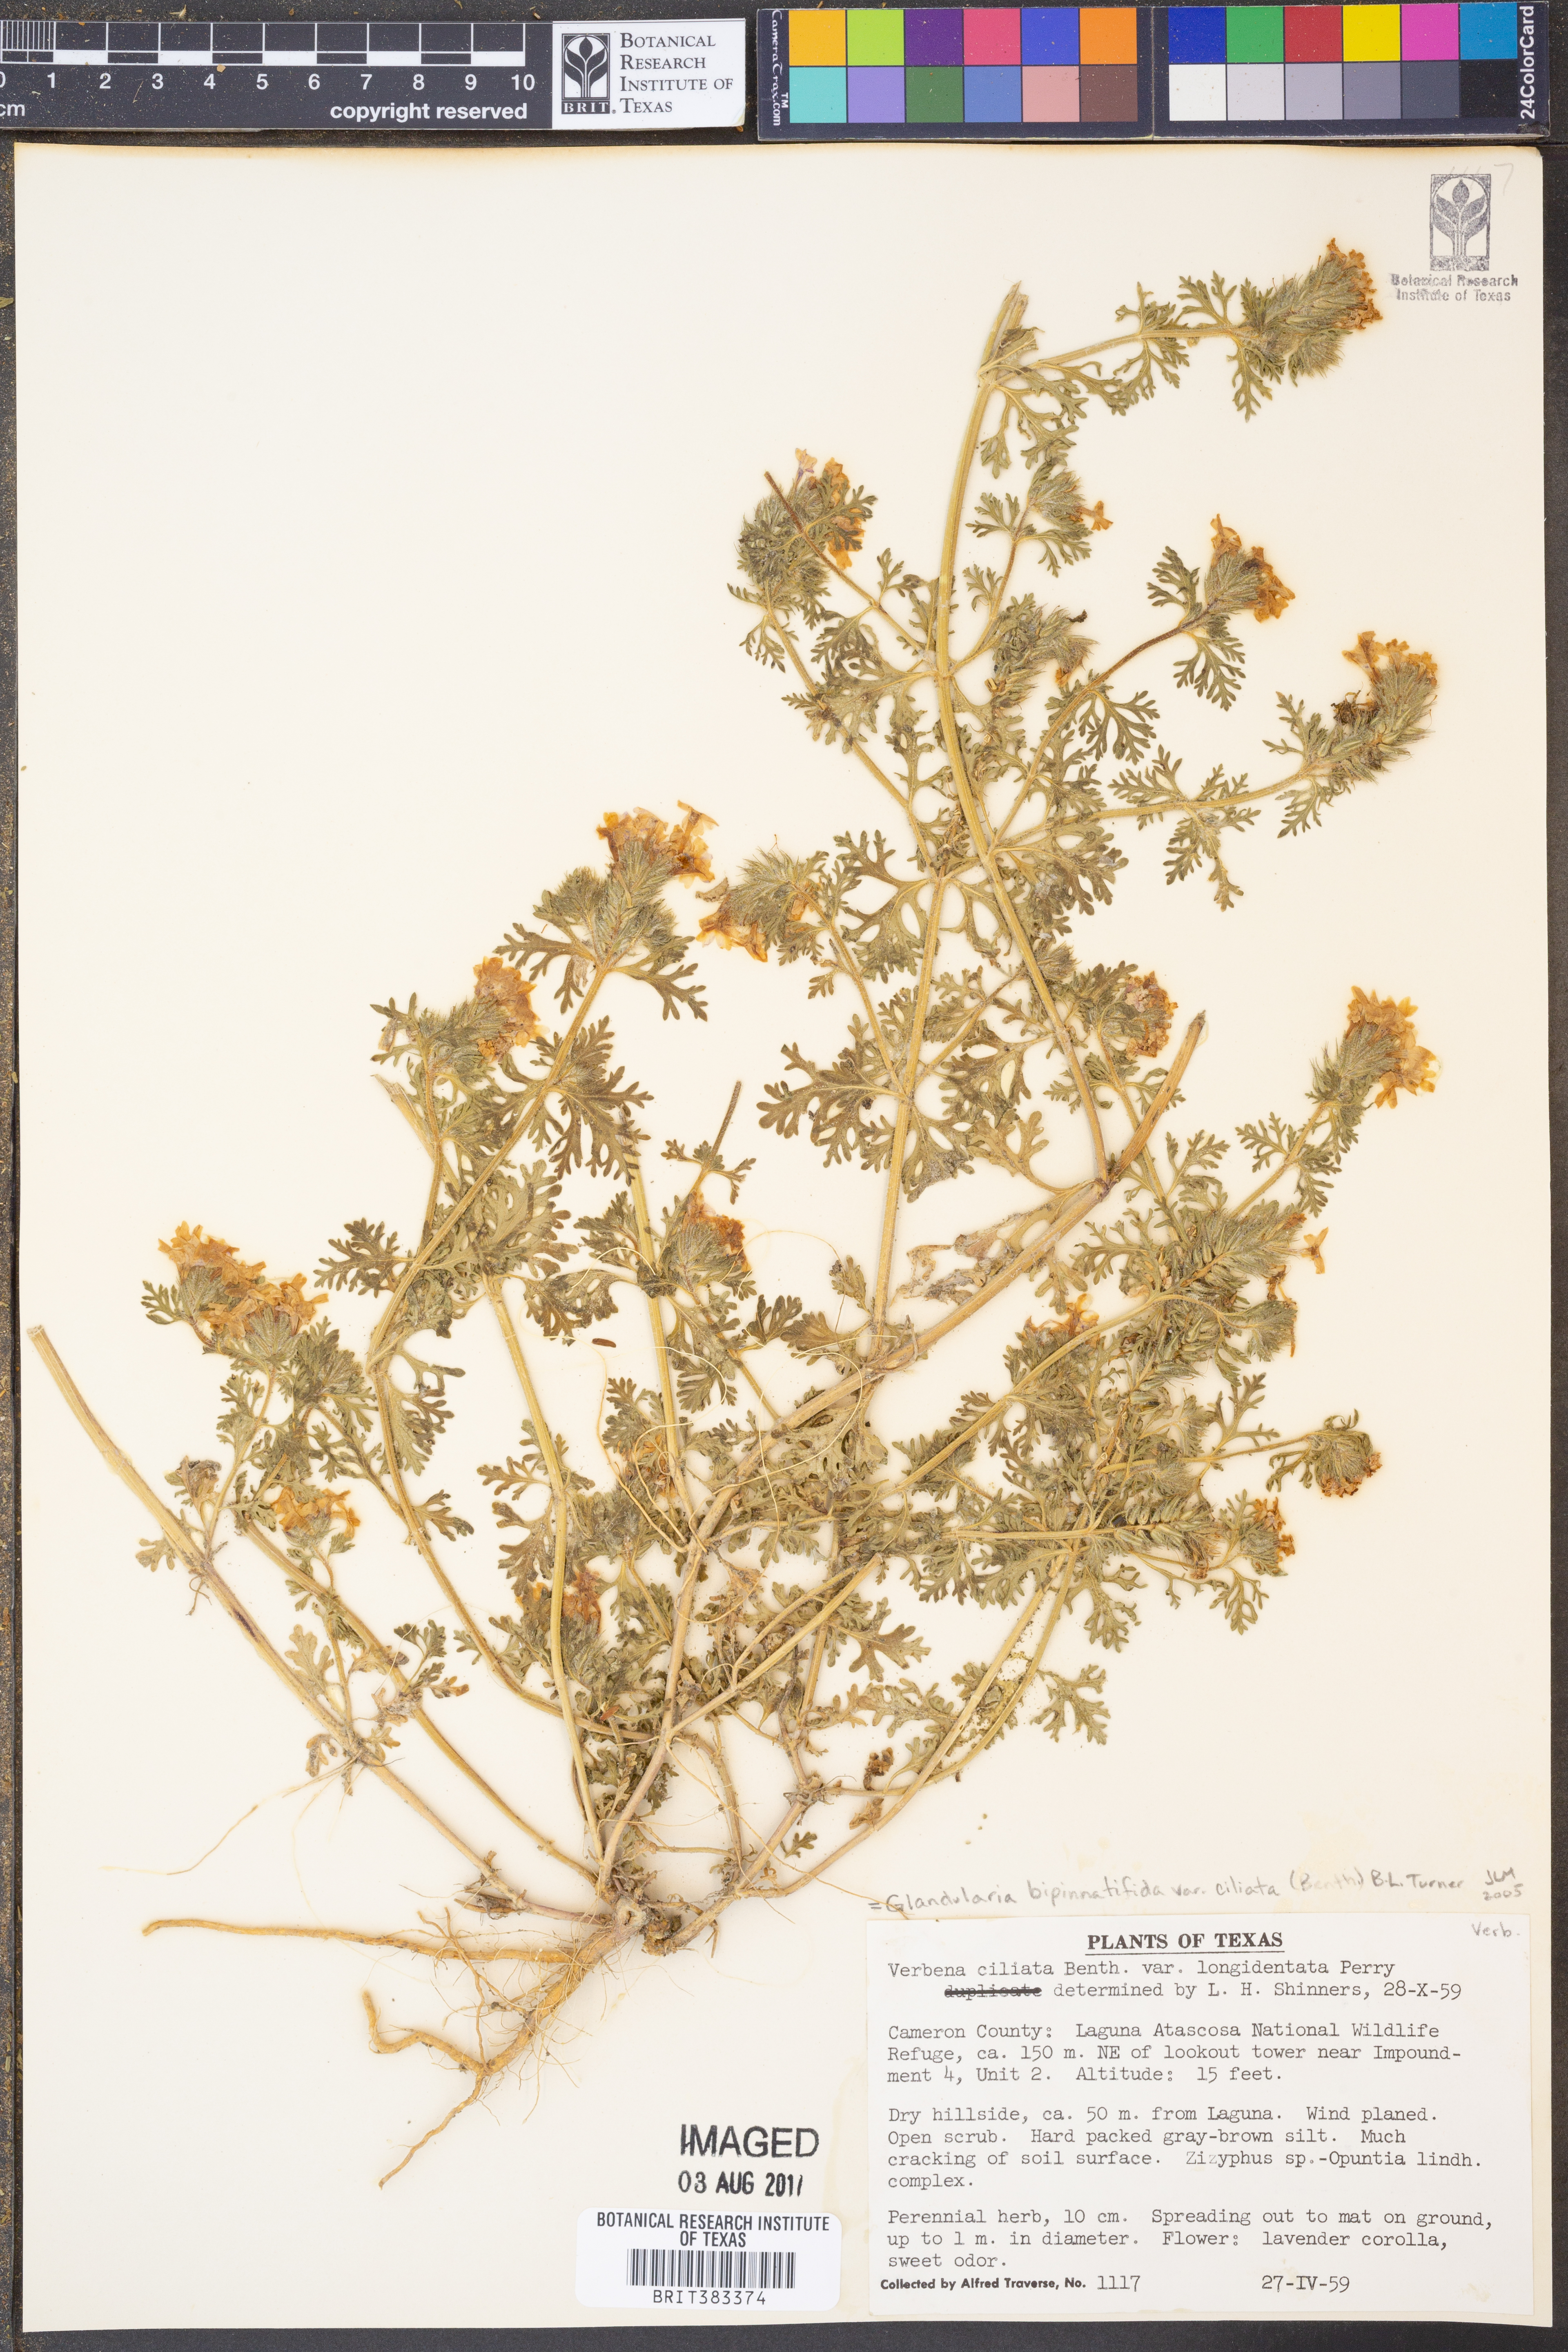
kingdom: Plantae
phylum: Tracheophyta
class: Magnoliopsida
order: Lamiales
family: Verbenaceae
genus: Verbena
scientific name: Verbena bipinnatifida
